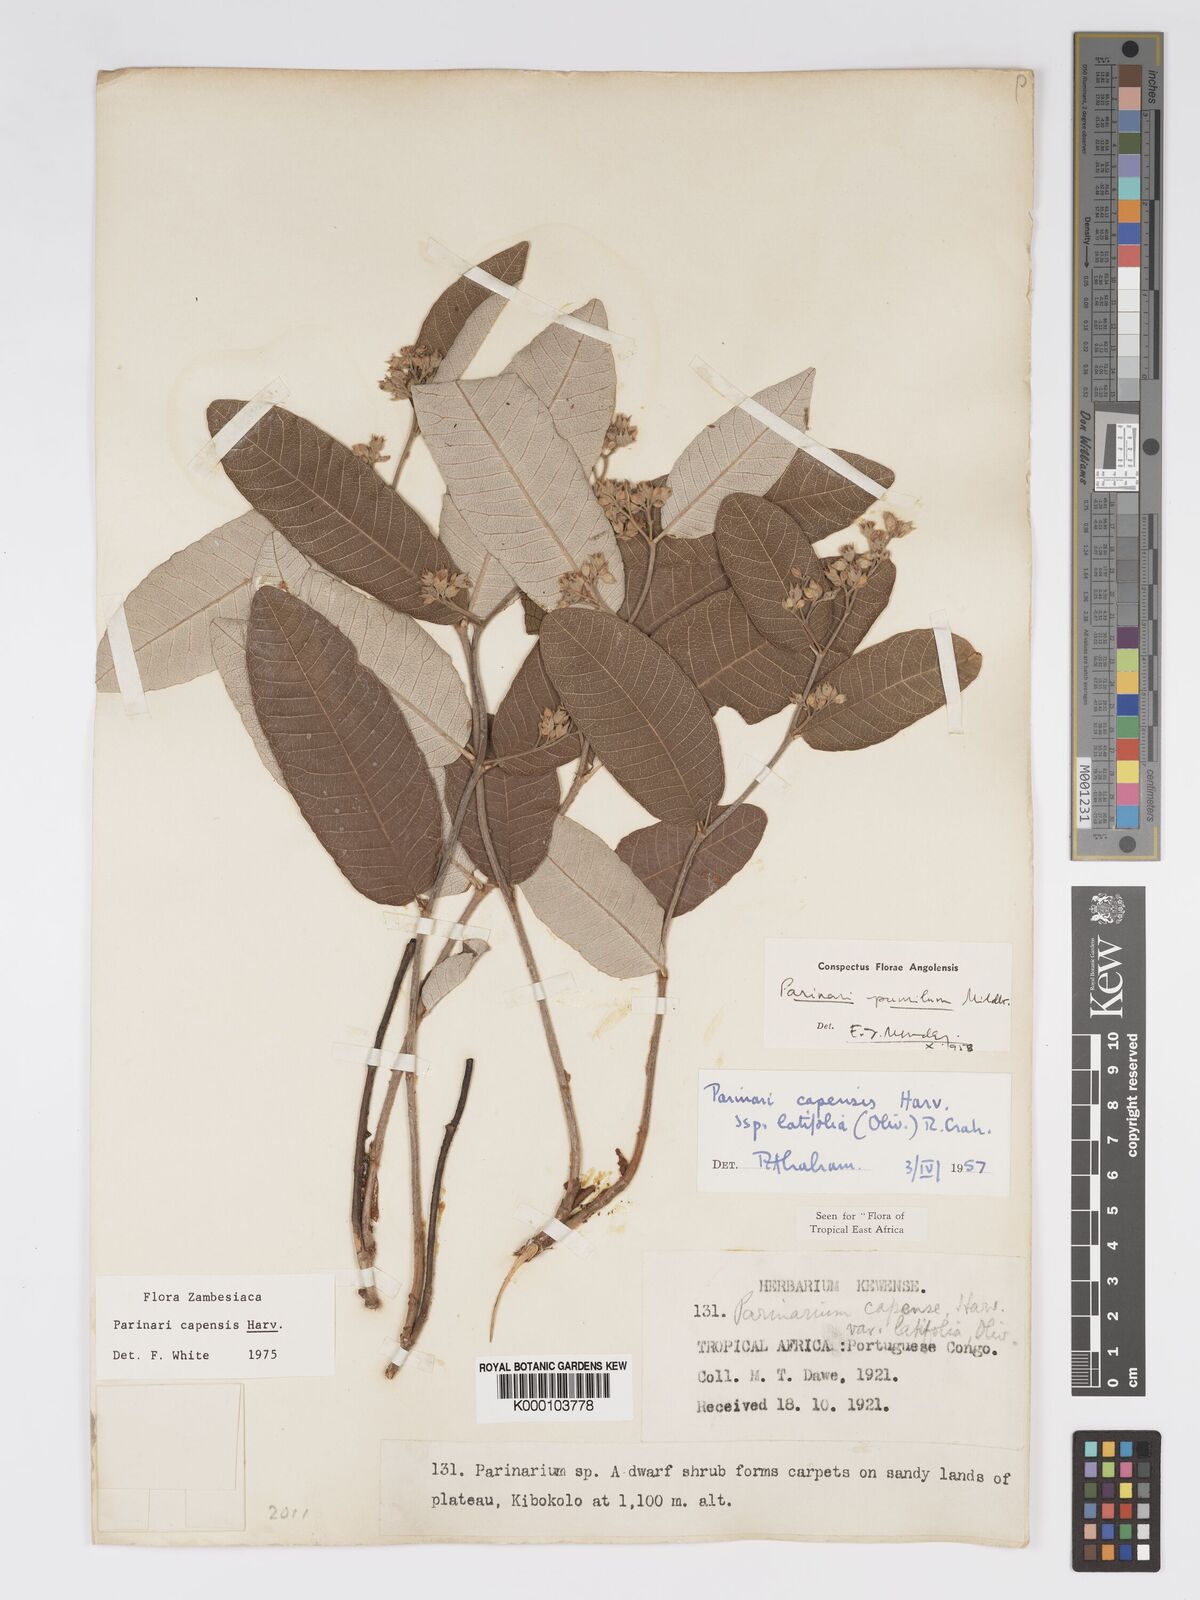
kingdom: Plantae
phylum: Tracheophyta
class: Magnoliopsida
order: Malpighiales
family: Chrysobalanaceae
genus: Parinari
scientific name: Parinari capensis
